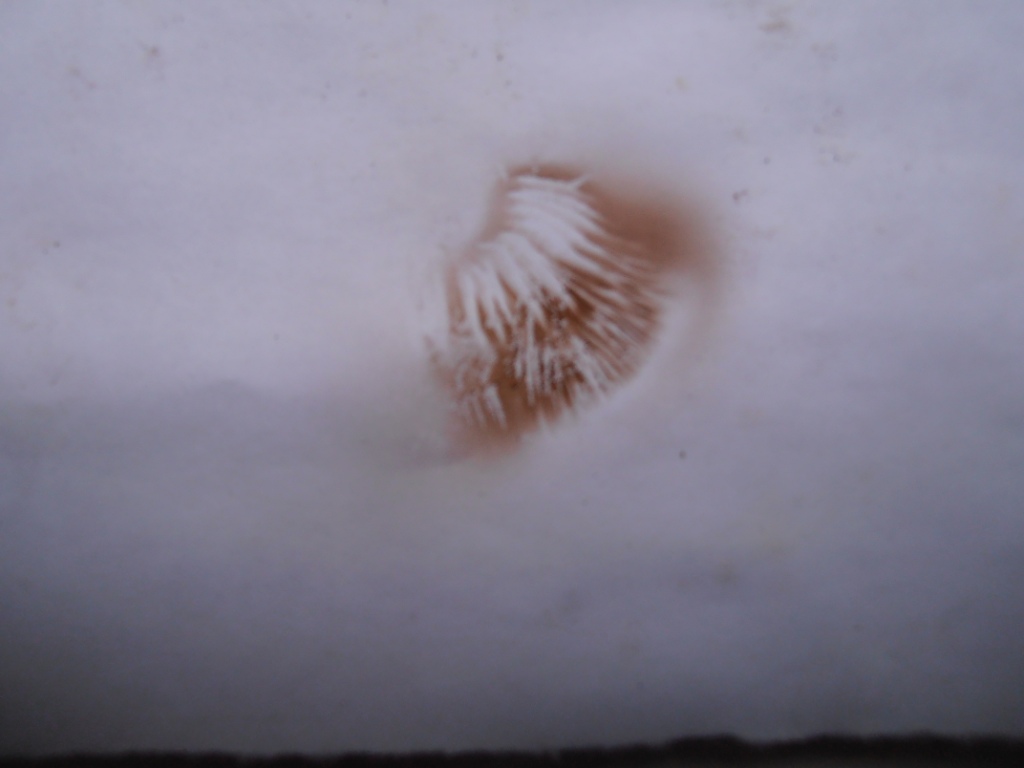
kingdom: Fungi
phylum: Basidiomycota
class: Agaricomycetes
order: Agaricales
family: Strophariaceae
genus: Pholiota
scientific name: Pholiota gummosa
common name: grøngul skælhat
